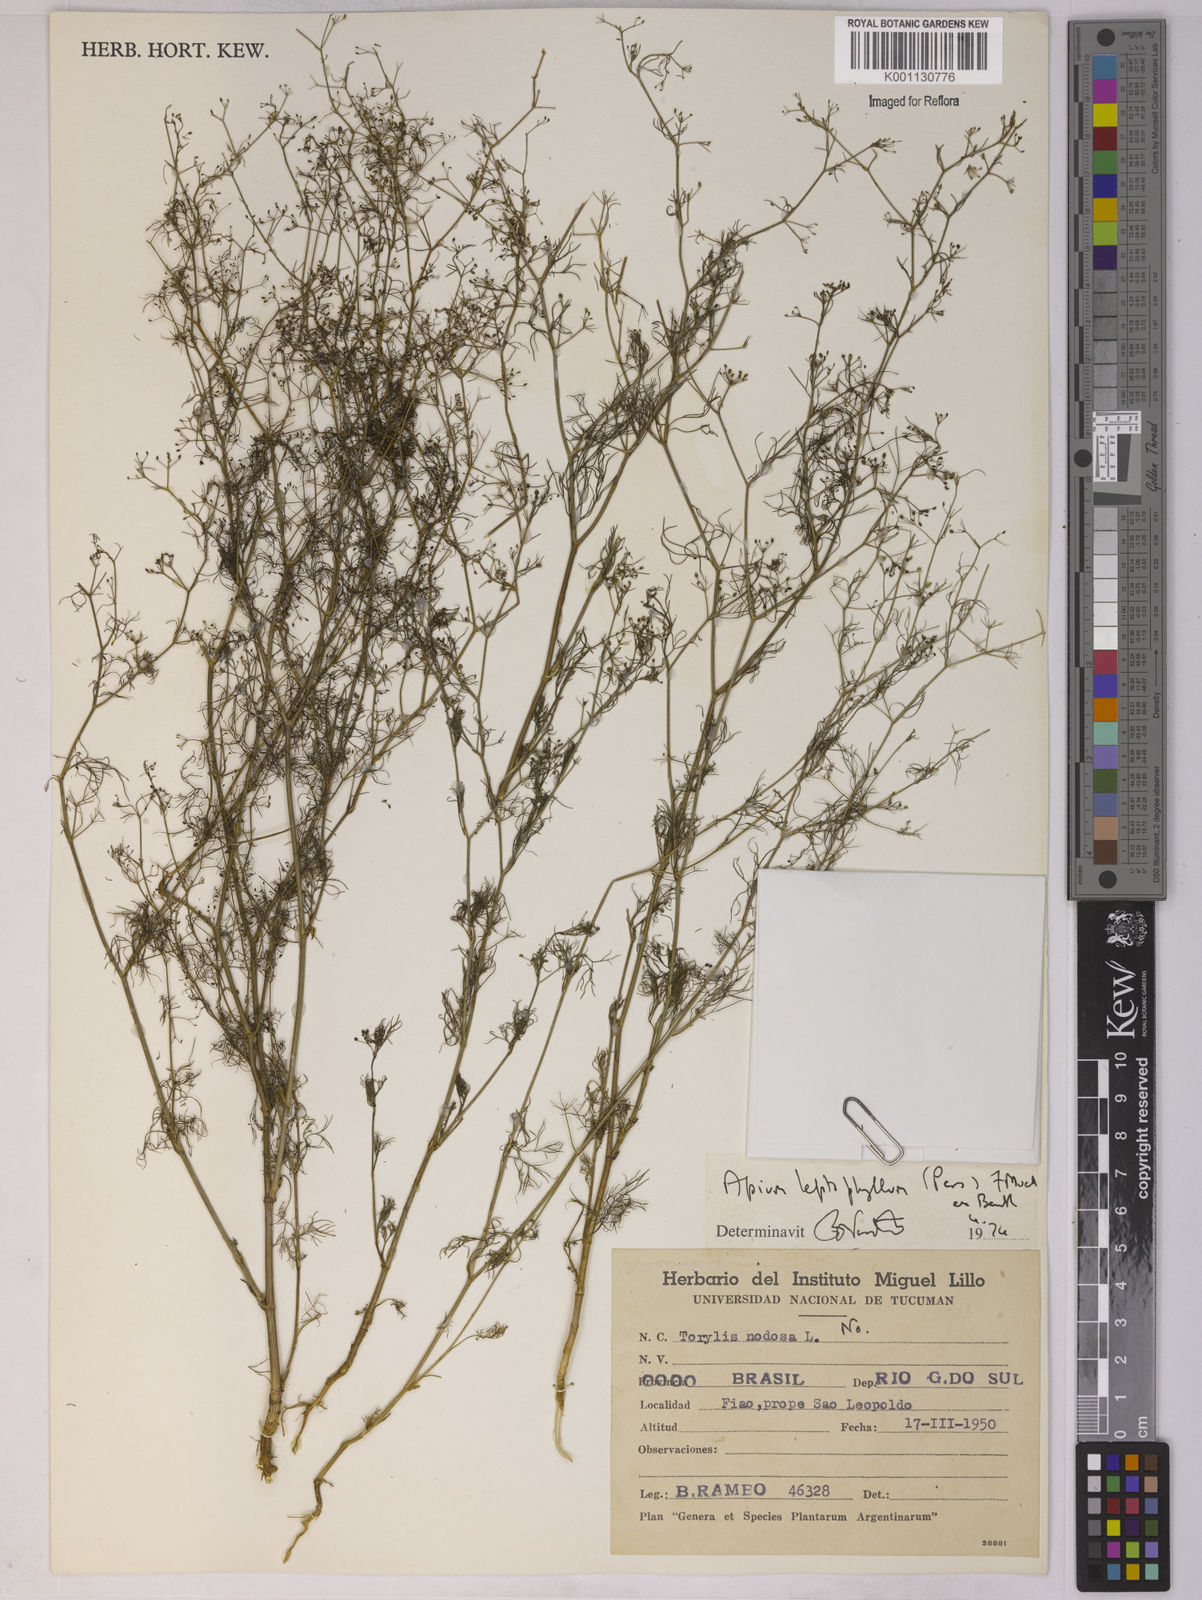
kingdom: Plantae
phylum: Tracheophyta
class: Magnoliopsida
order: Apiales
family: Apiaceae
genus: Apium
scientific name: Apium
